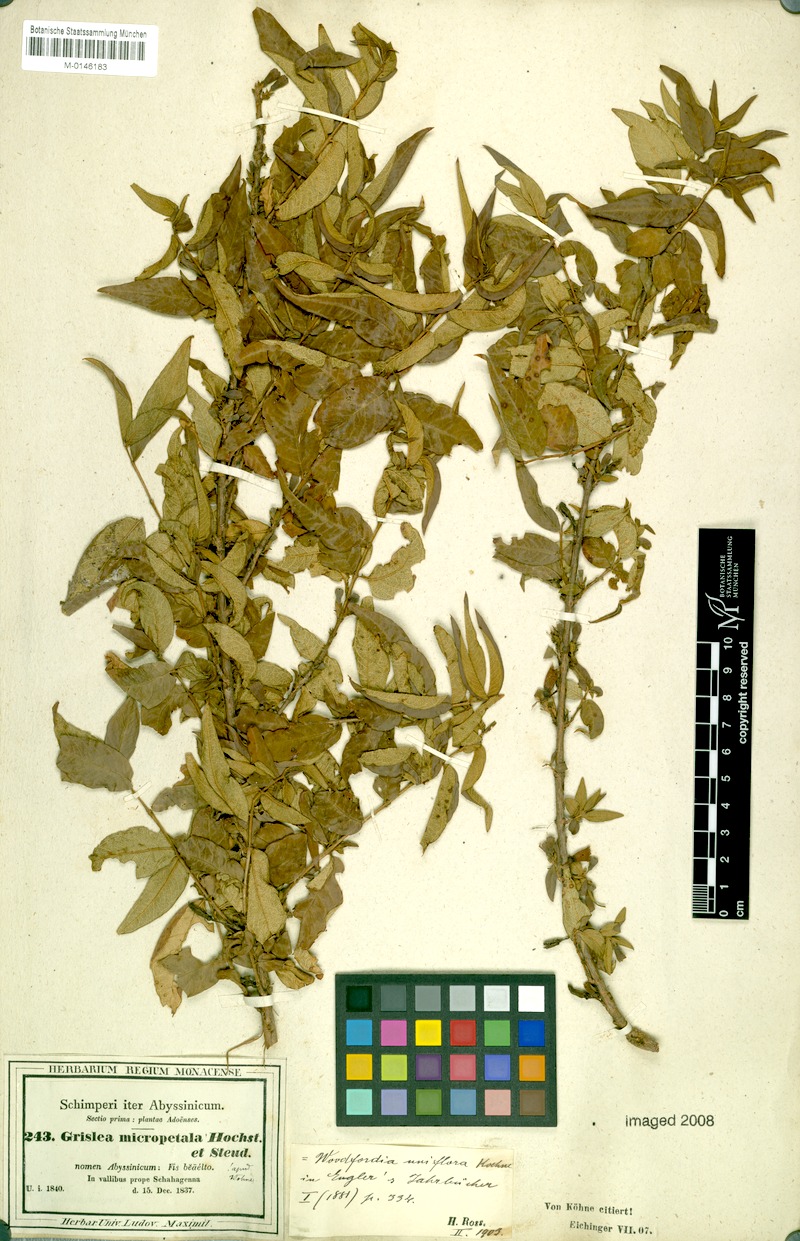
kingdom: Plantae
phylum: Tracheophyta
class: Magnoliopsida
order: Myrtales
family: Lythraceae
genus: Woodfordia
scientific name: Woodfordia uniflora
